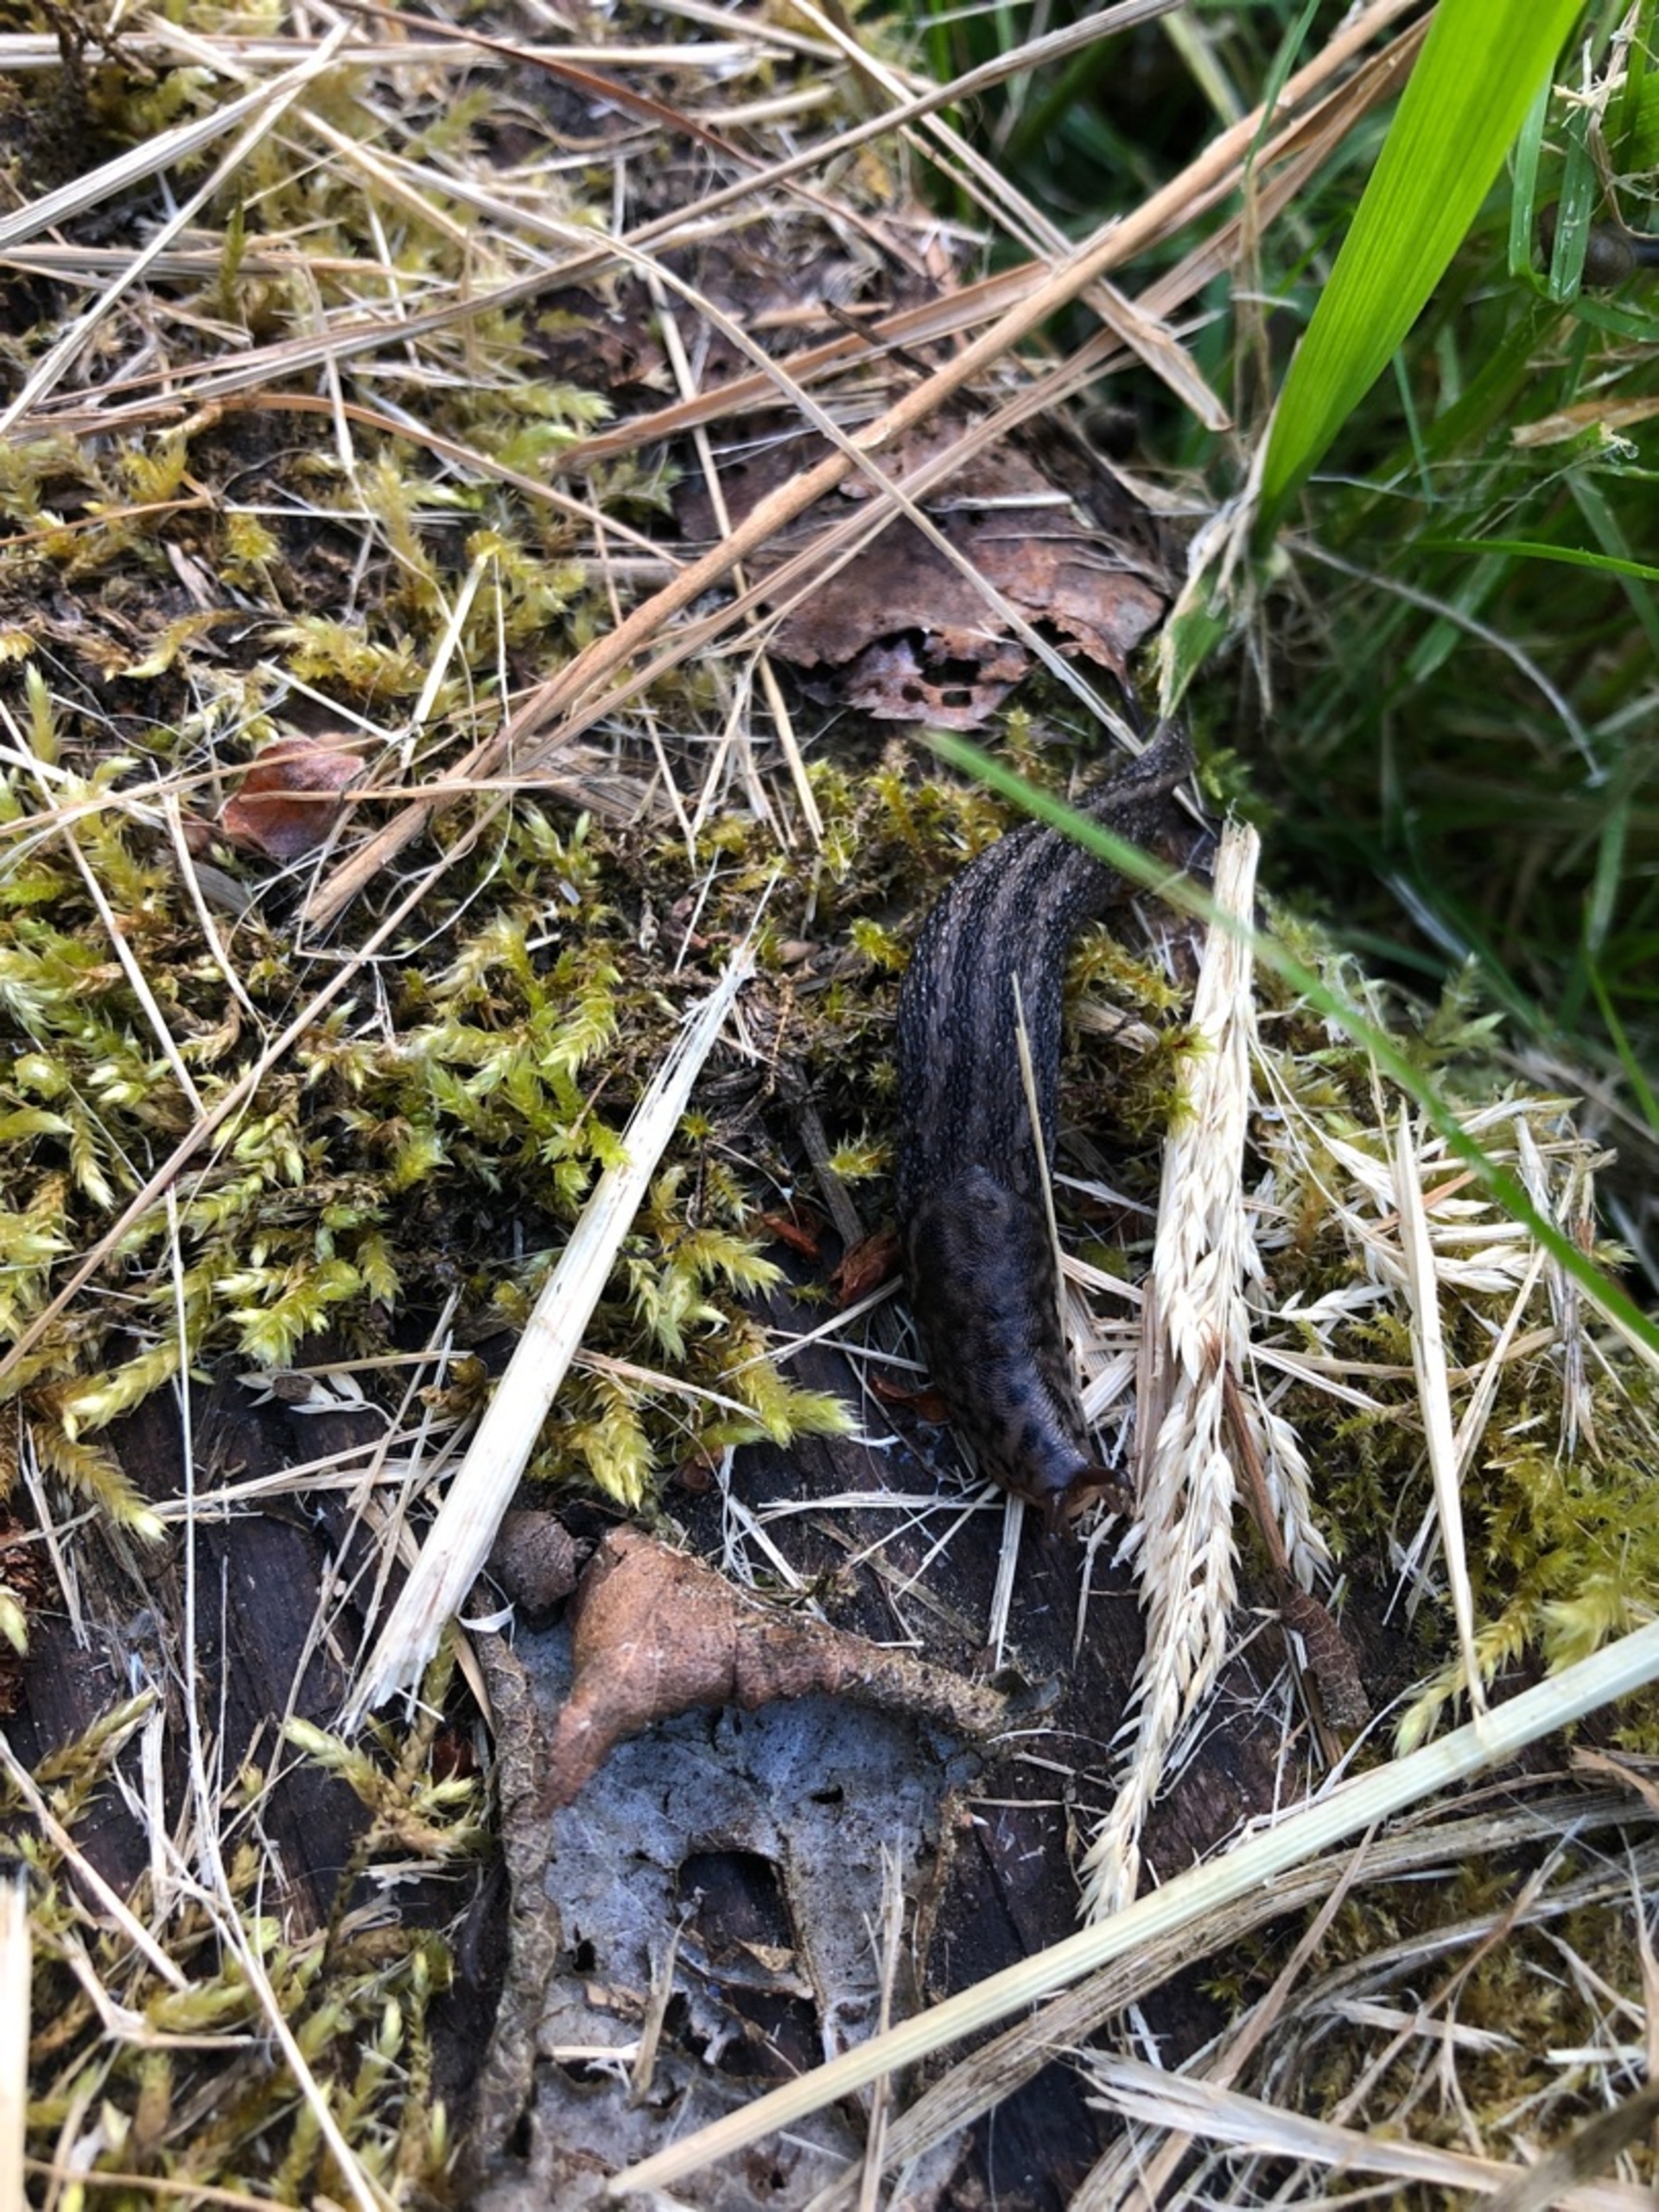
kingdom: Animalia
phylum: Mollusca
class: Gastropoda
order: Stylommatophora
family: Limacidae
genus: Limax
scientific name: Limax maximus
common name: Pantersnegl
